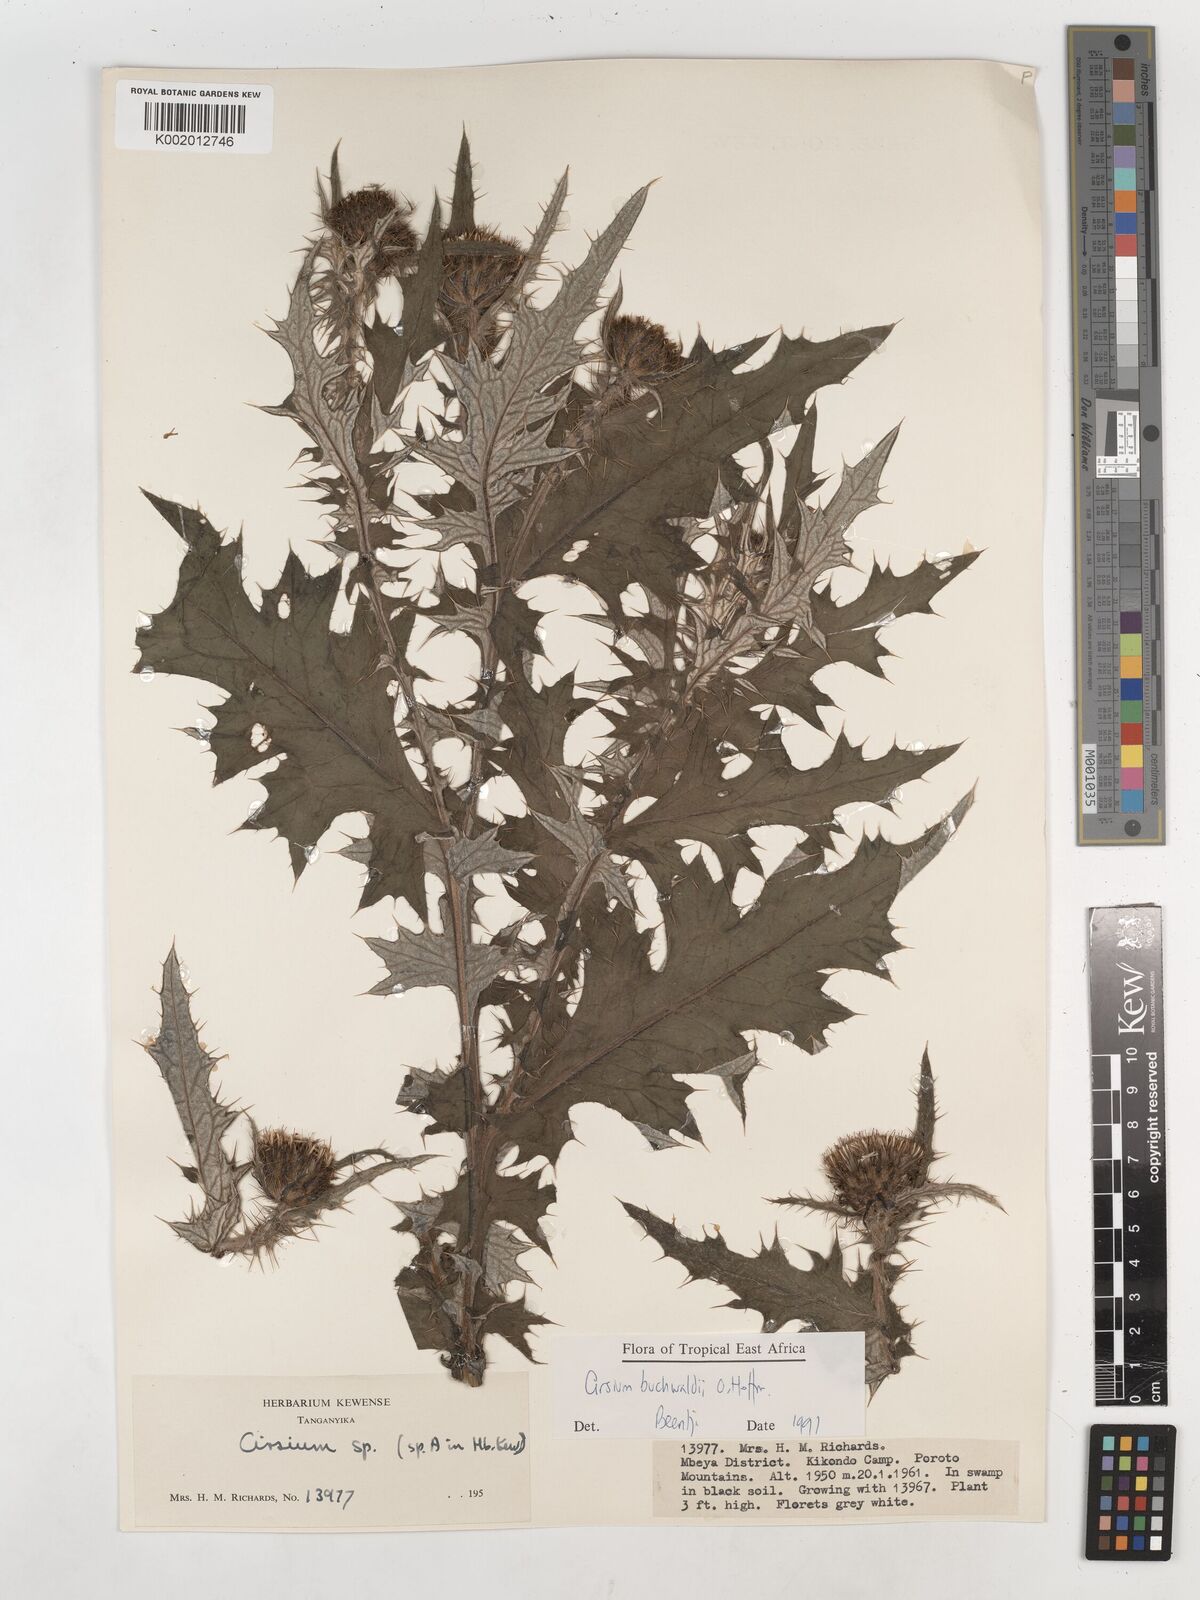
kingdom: Plantae
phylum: Tracheophyta
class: Magnoliopsida
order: Asterales
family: Asteraceae
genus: Cirsium
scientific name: Cirsium buchwaldii
